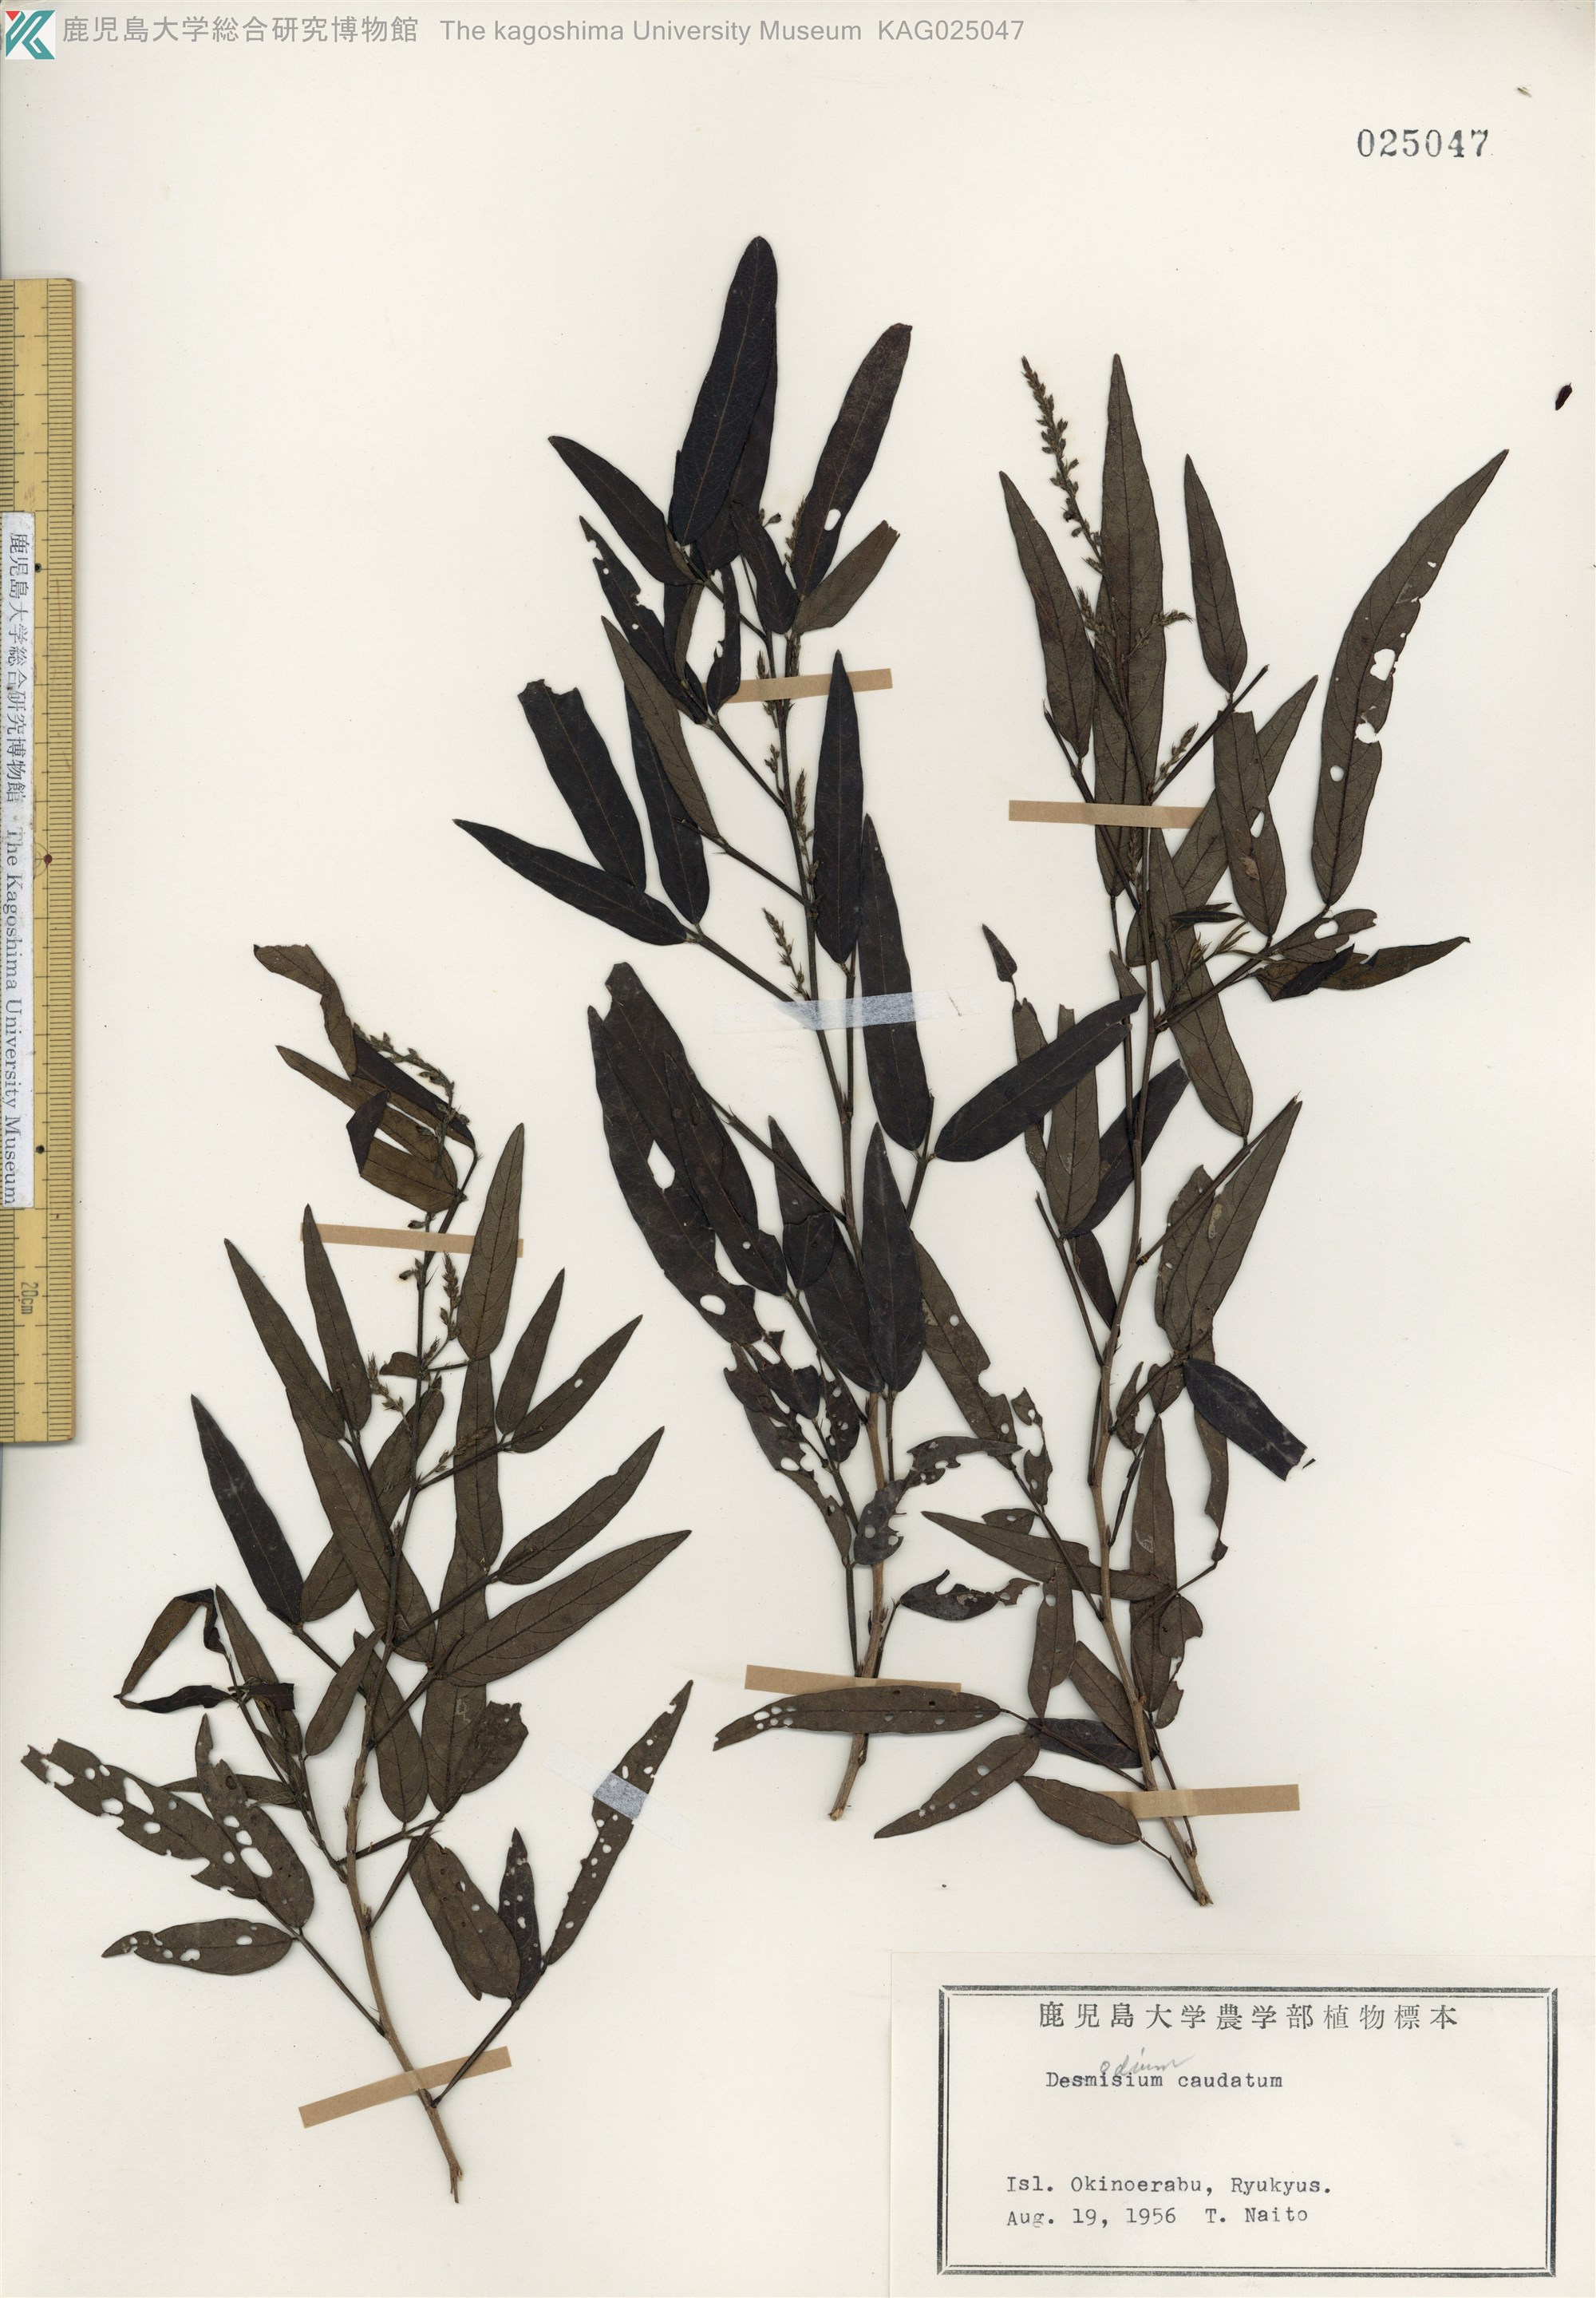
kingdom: Plantae
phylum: Tracheophyta
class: Magnoliopsida
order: Fabales
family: Fabaceae
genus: Ohwia
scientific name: Ohwia caudata
